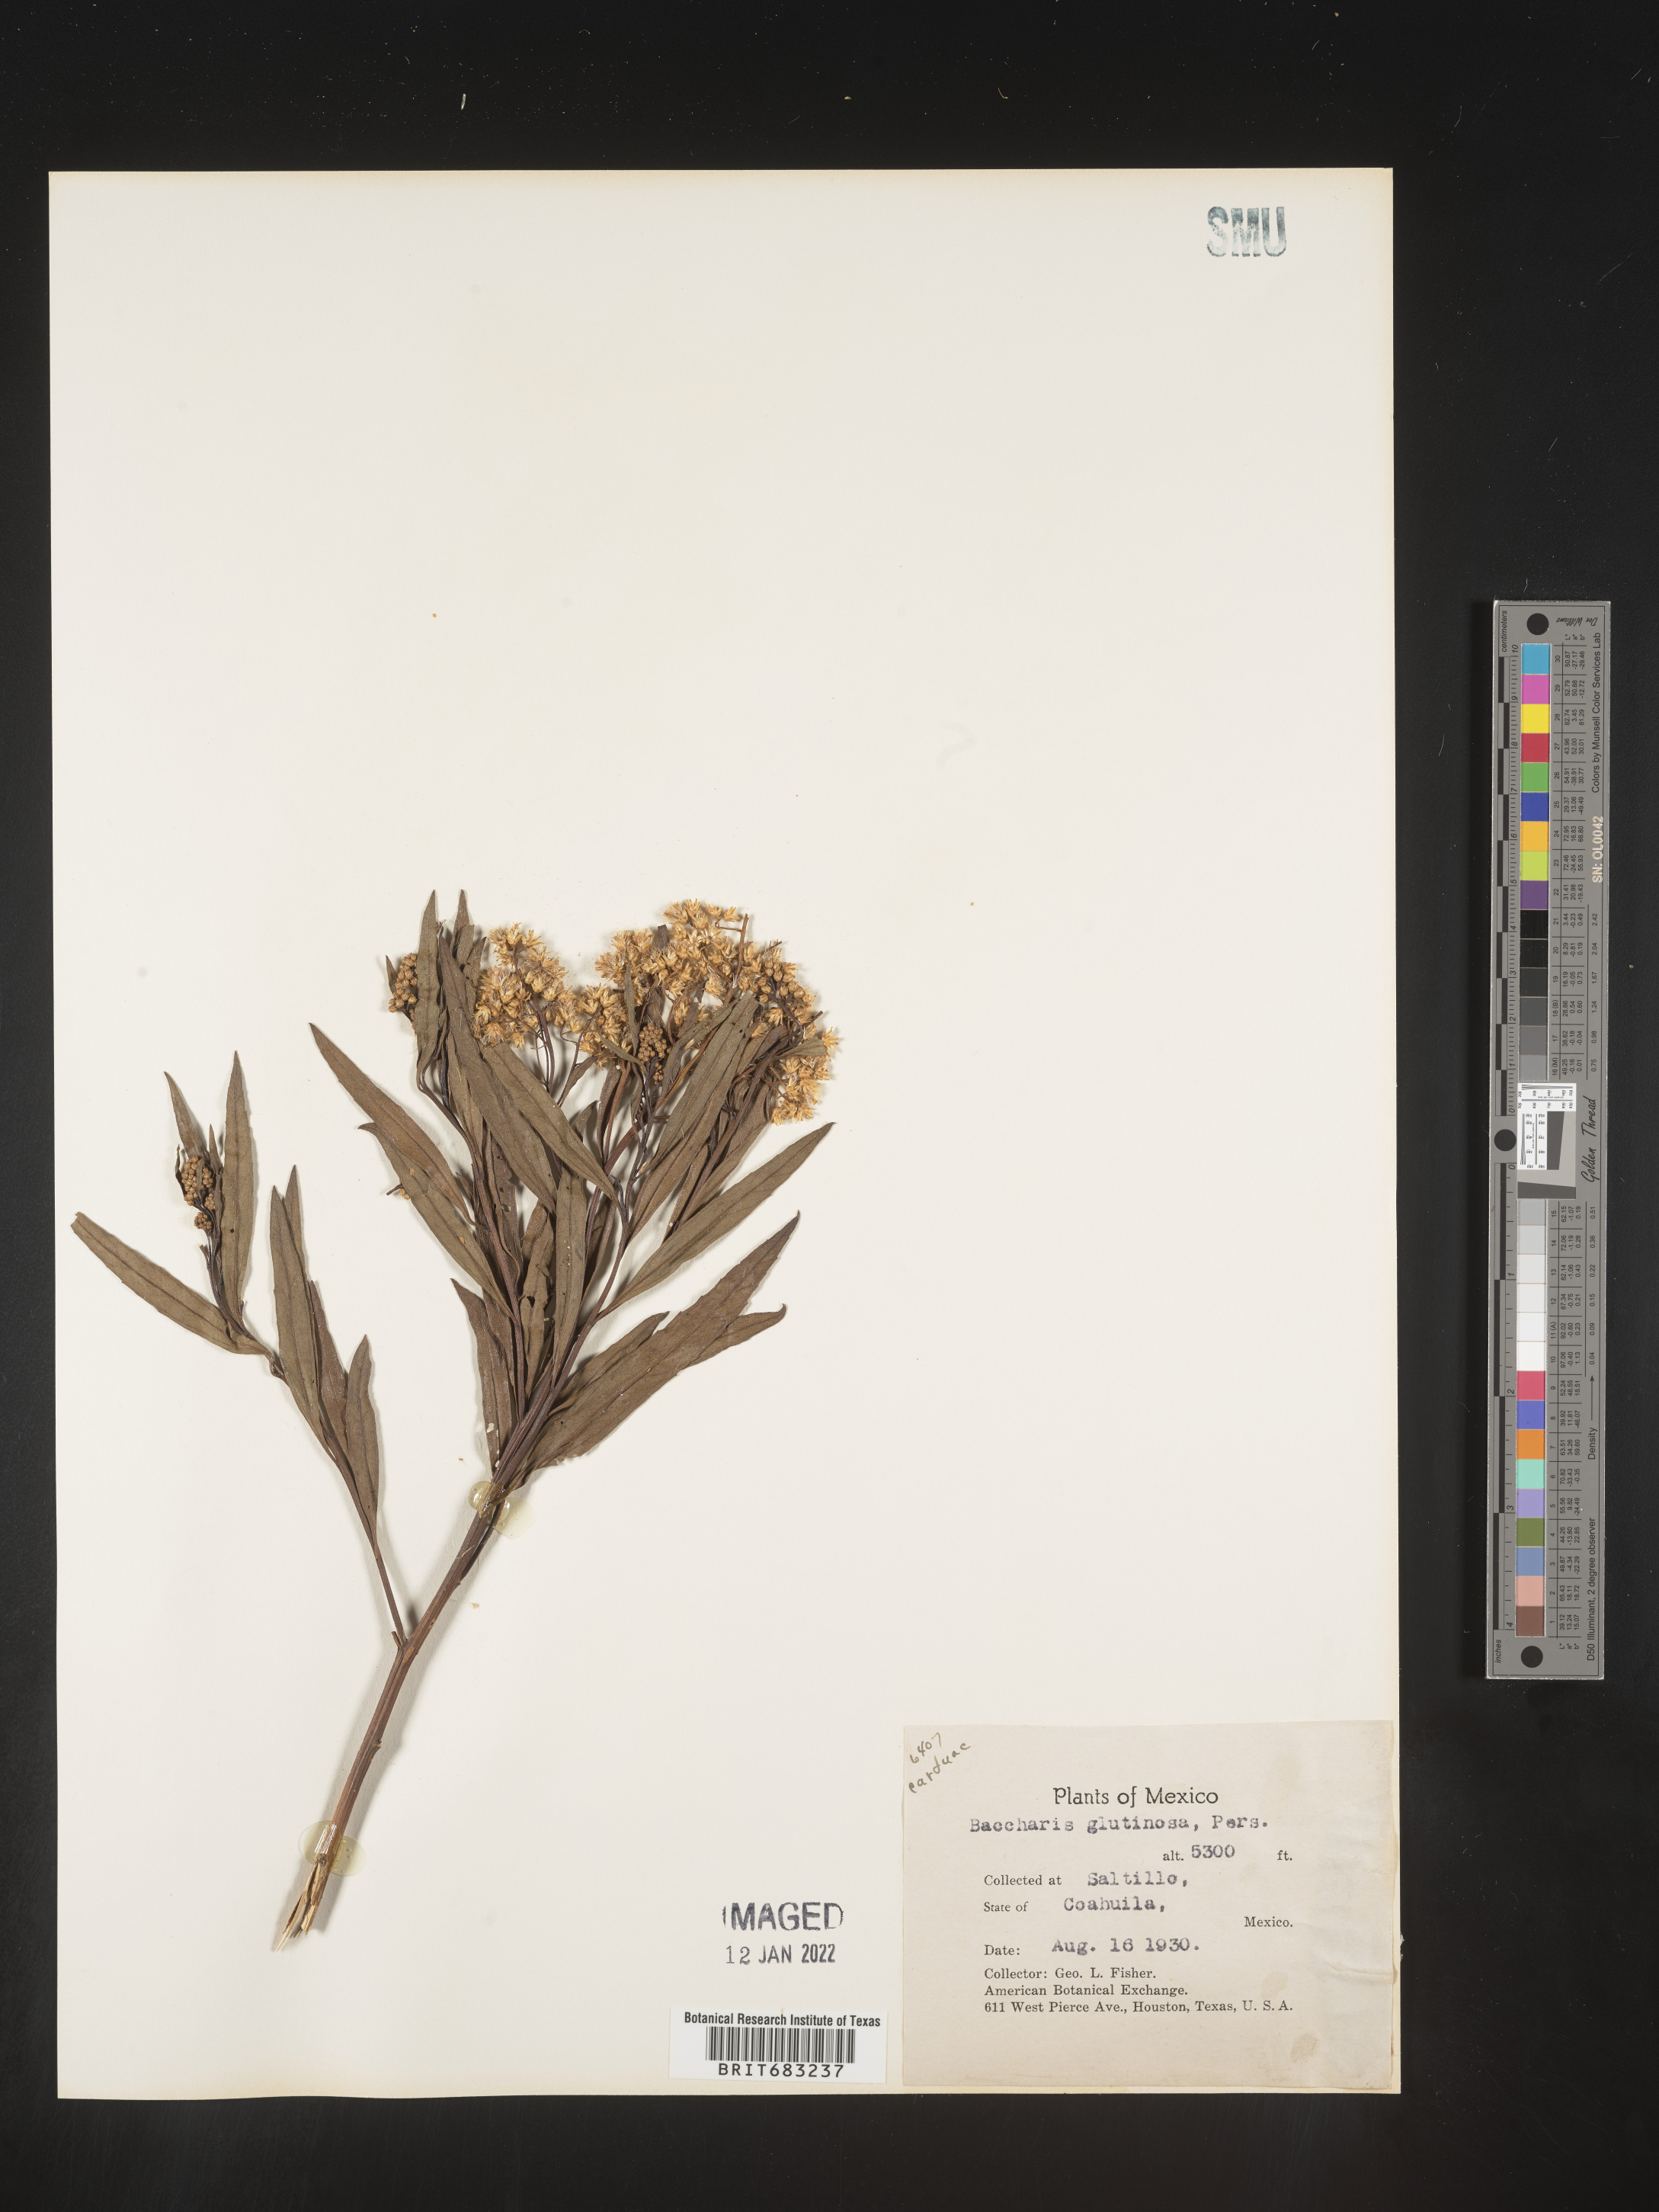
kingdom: Plantae
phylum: Tracheophyta
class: Magnoliopsida
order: Asterales
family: Asteraceae
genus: Baccharis
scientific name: Baccharis salicifolia
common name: Sticky baccharis
